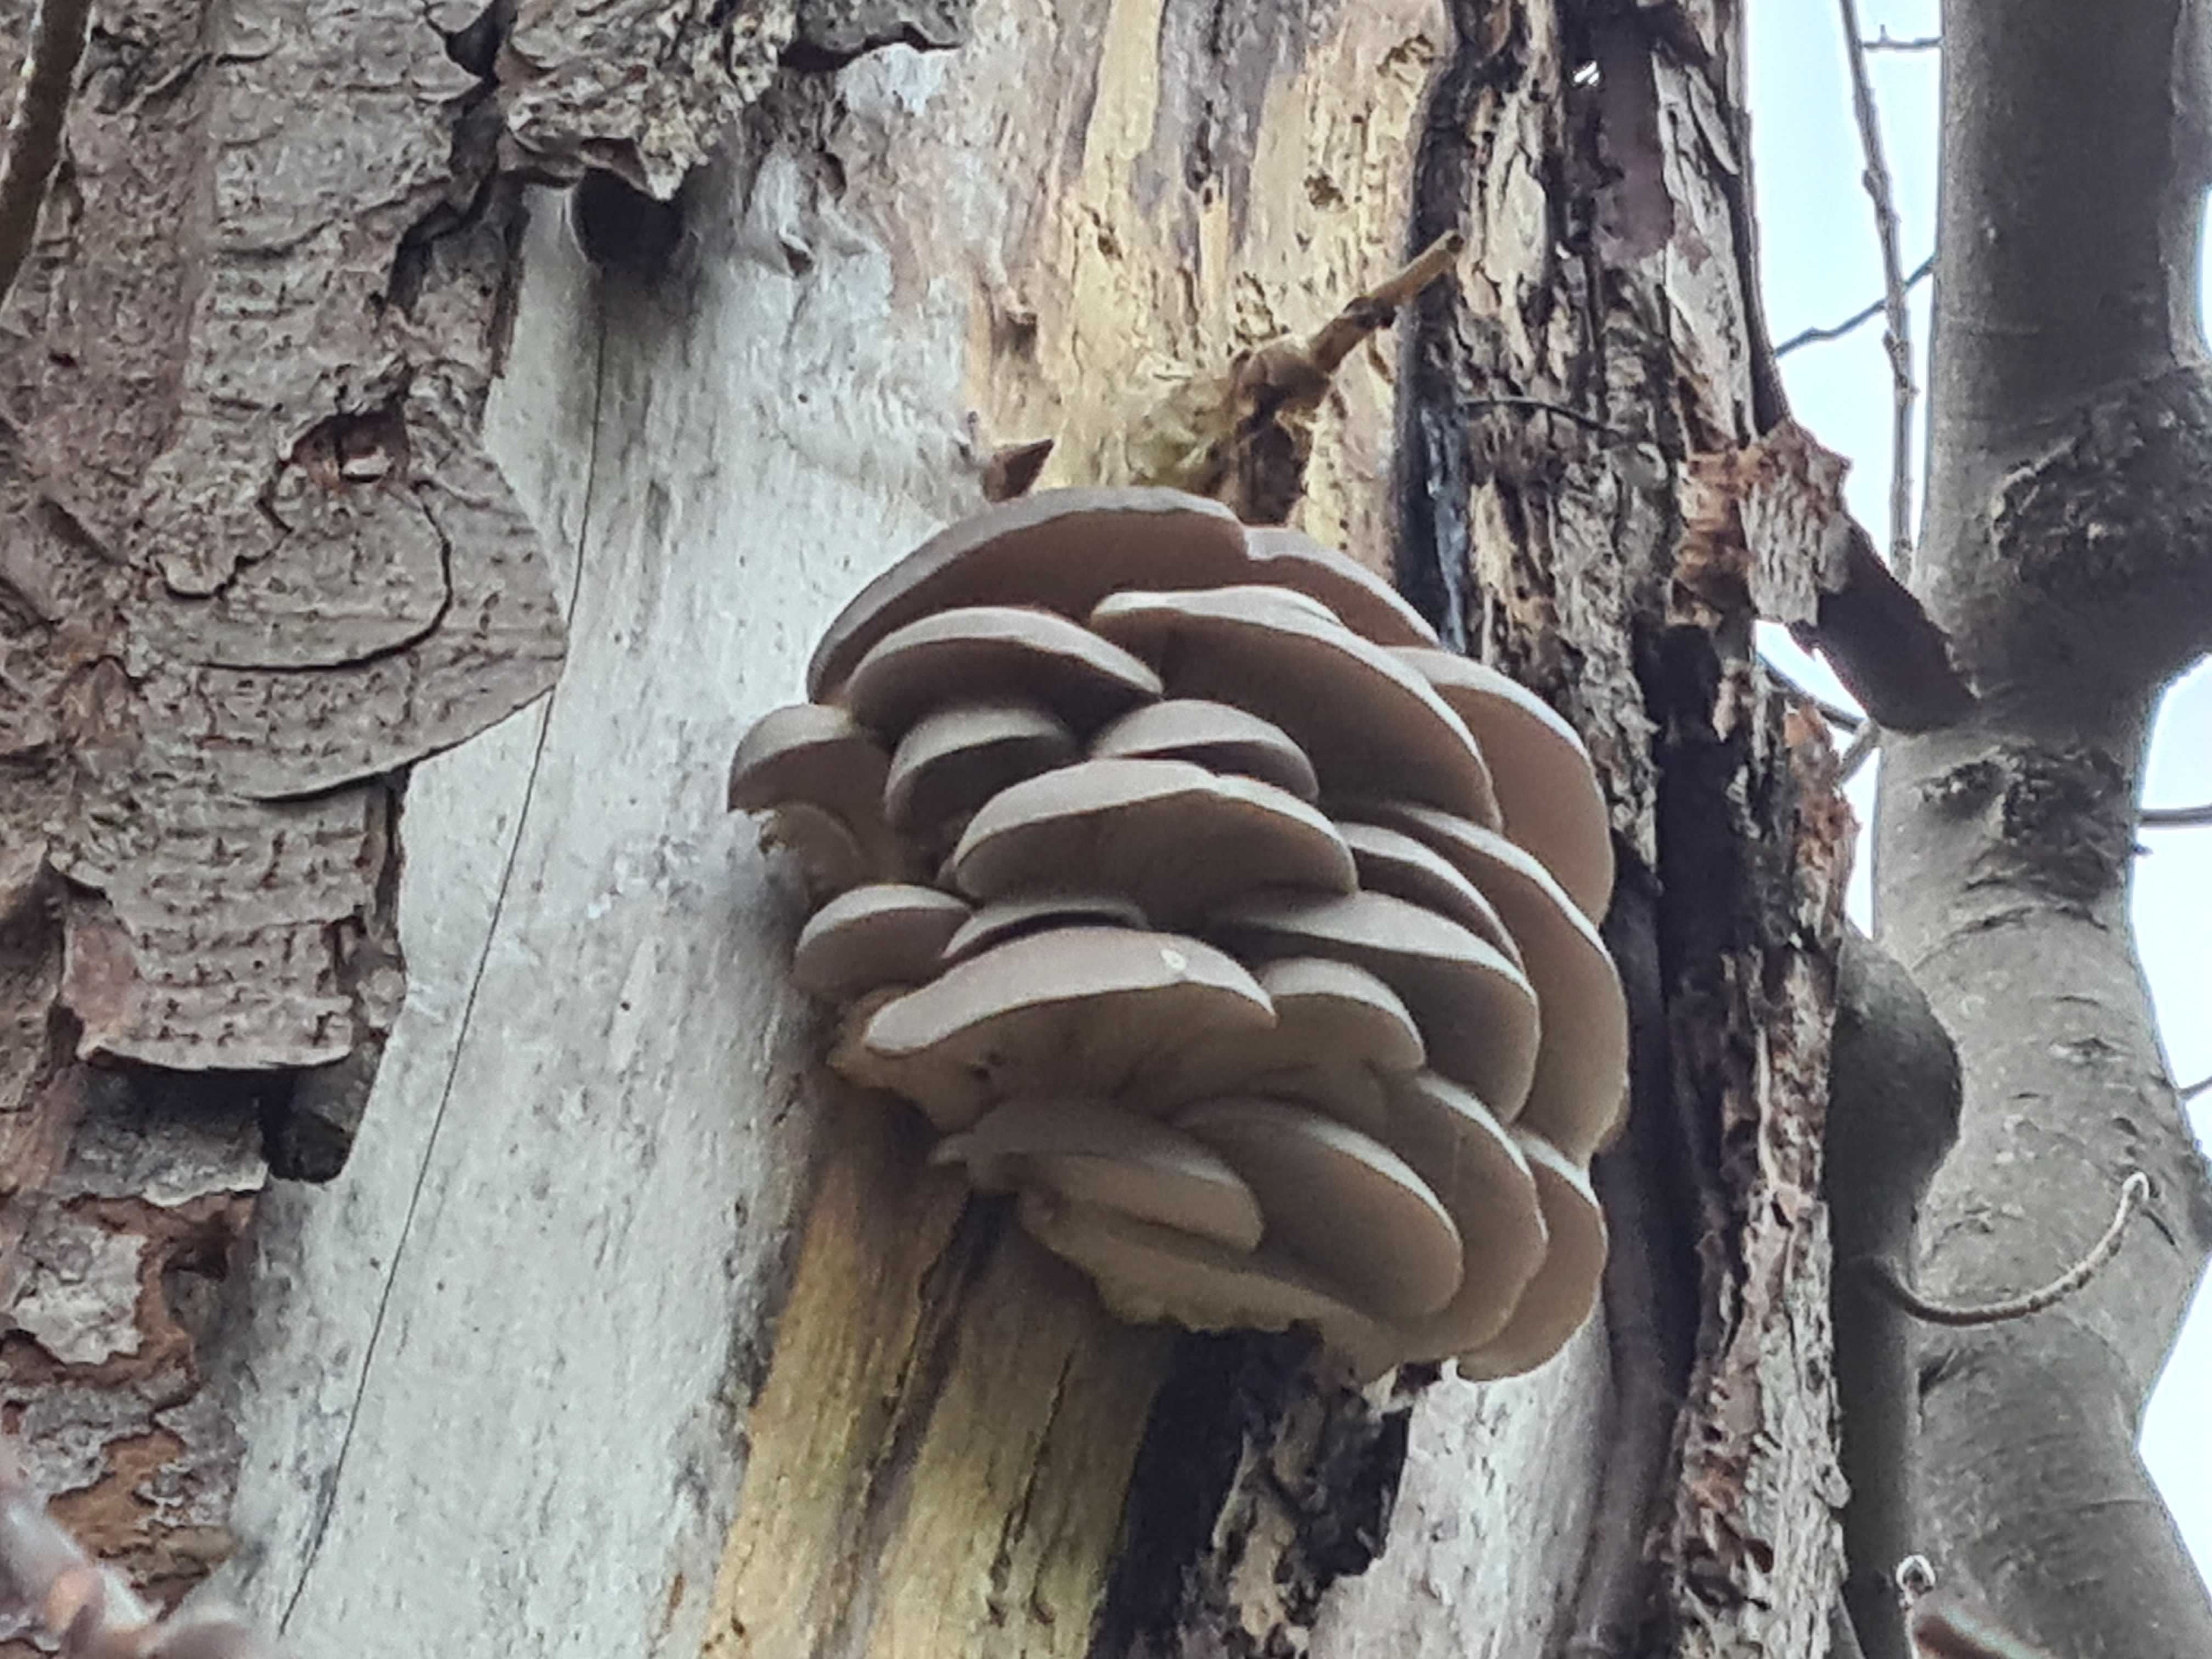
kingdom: Fungi
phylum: Basidiomycota
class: Agaricomycetes
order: Agaricales
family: Pleurotaceae
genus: Pleurotus
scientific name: Pleurotus ostreatus
